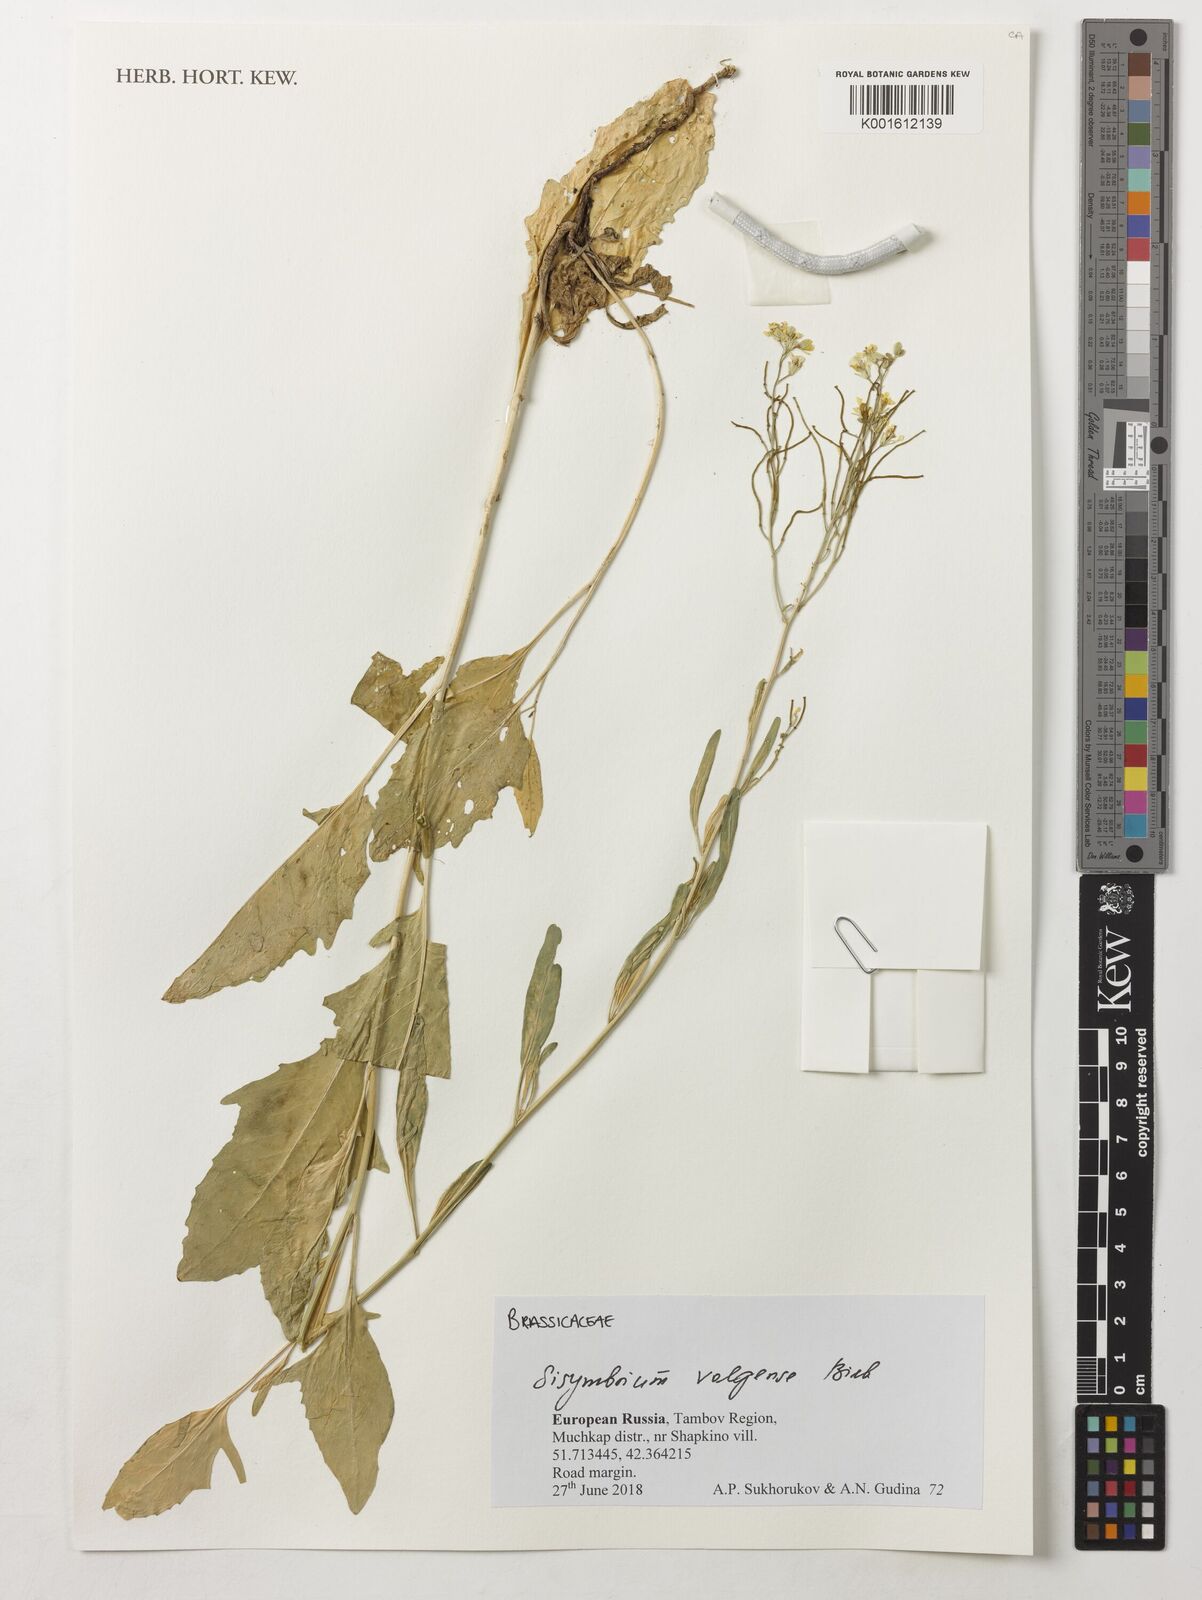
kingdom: Plantae
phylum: Tracheophyta
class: Magnoliopsida
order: Brassicales
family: Brassicaceae
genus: Sisymbrium
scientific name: Sisymbrium volgense
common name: Russian mustard
